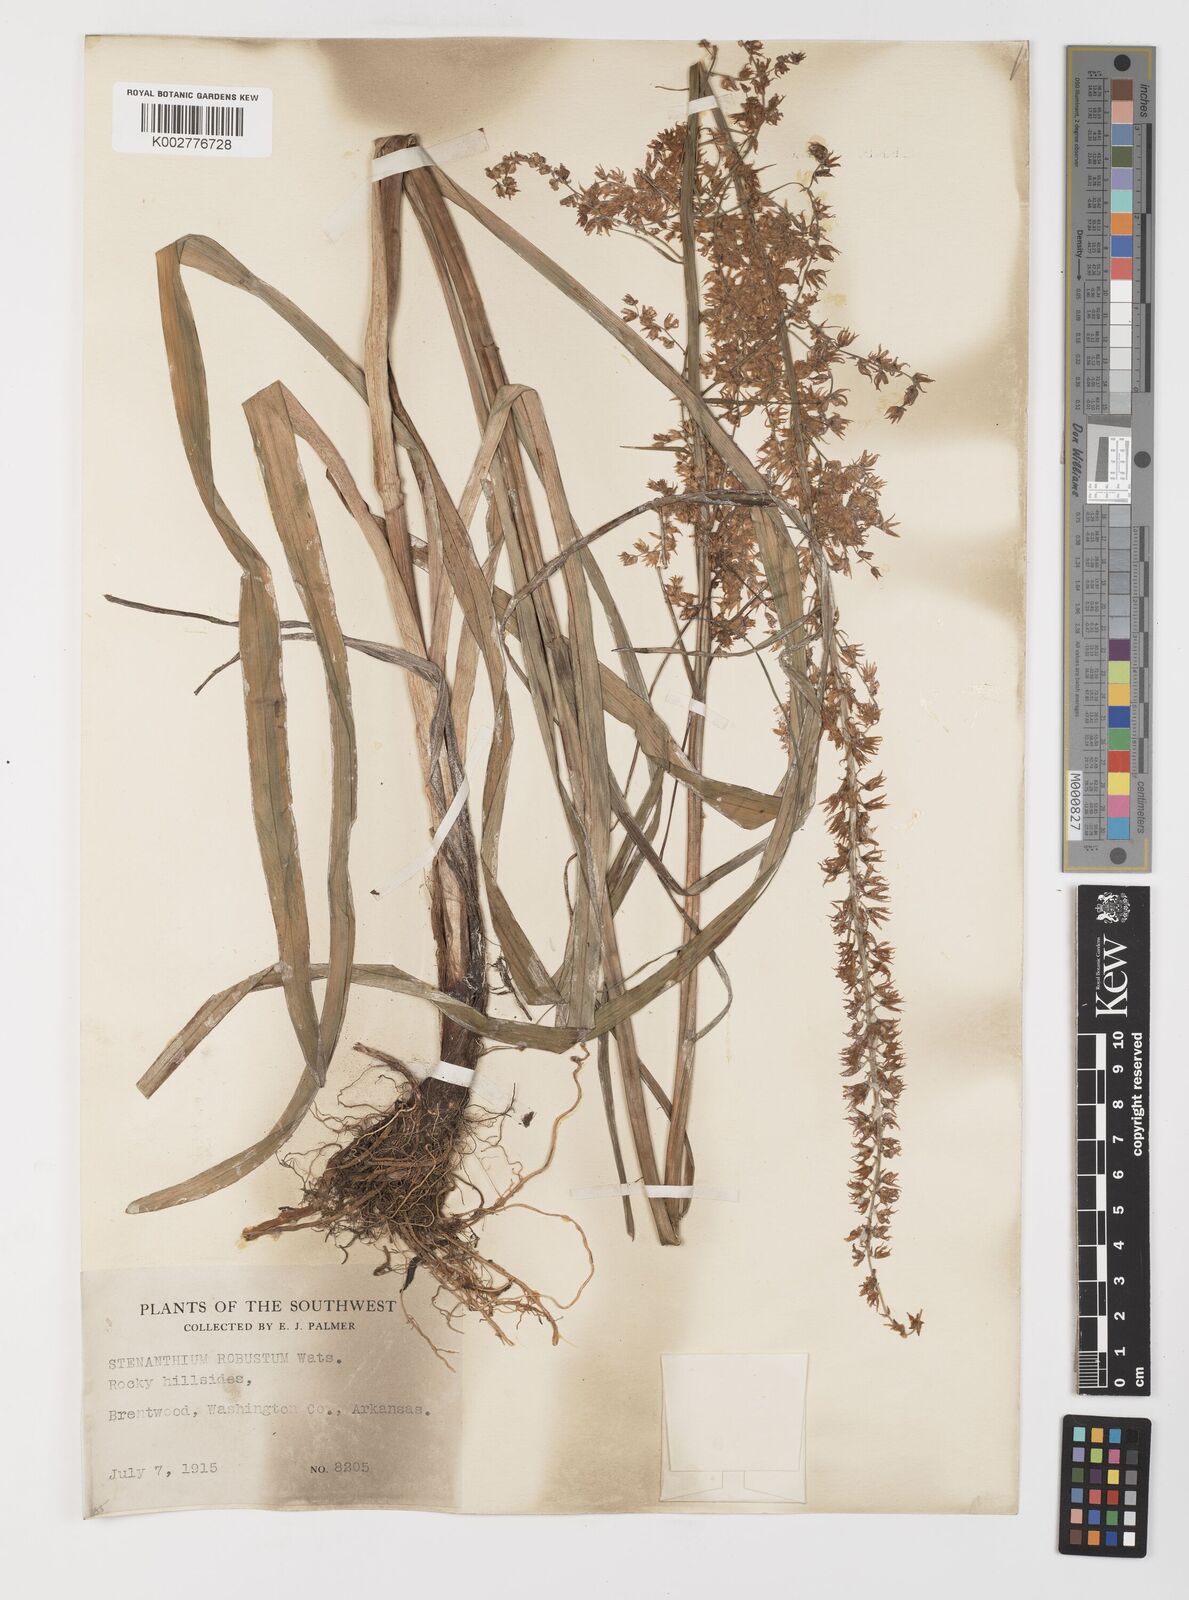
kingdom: Plantae
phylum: Tracheophyta
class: Liliopsida
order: Liliales
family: Melanthiaceae
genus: Stenanthium
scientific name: Stenanthium gramineum
